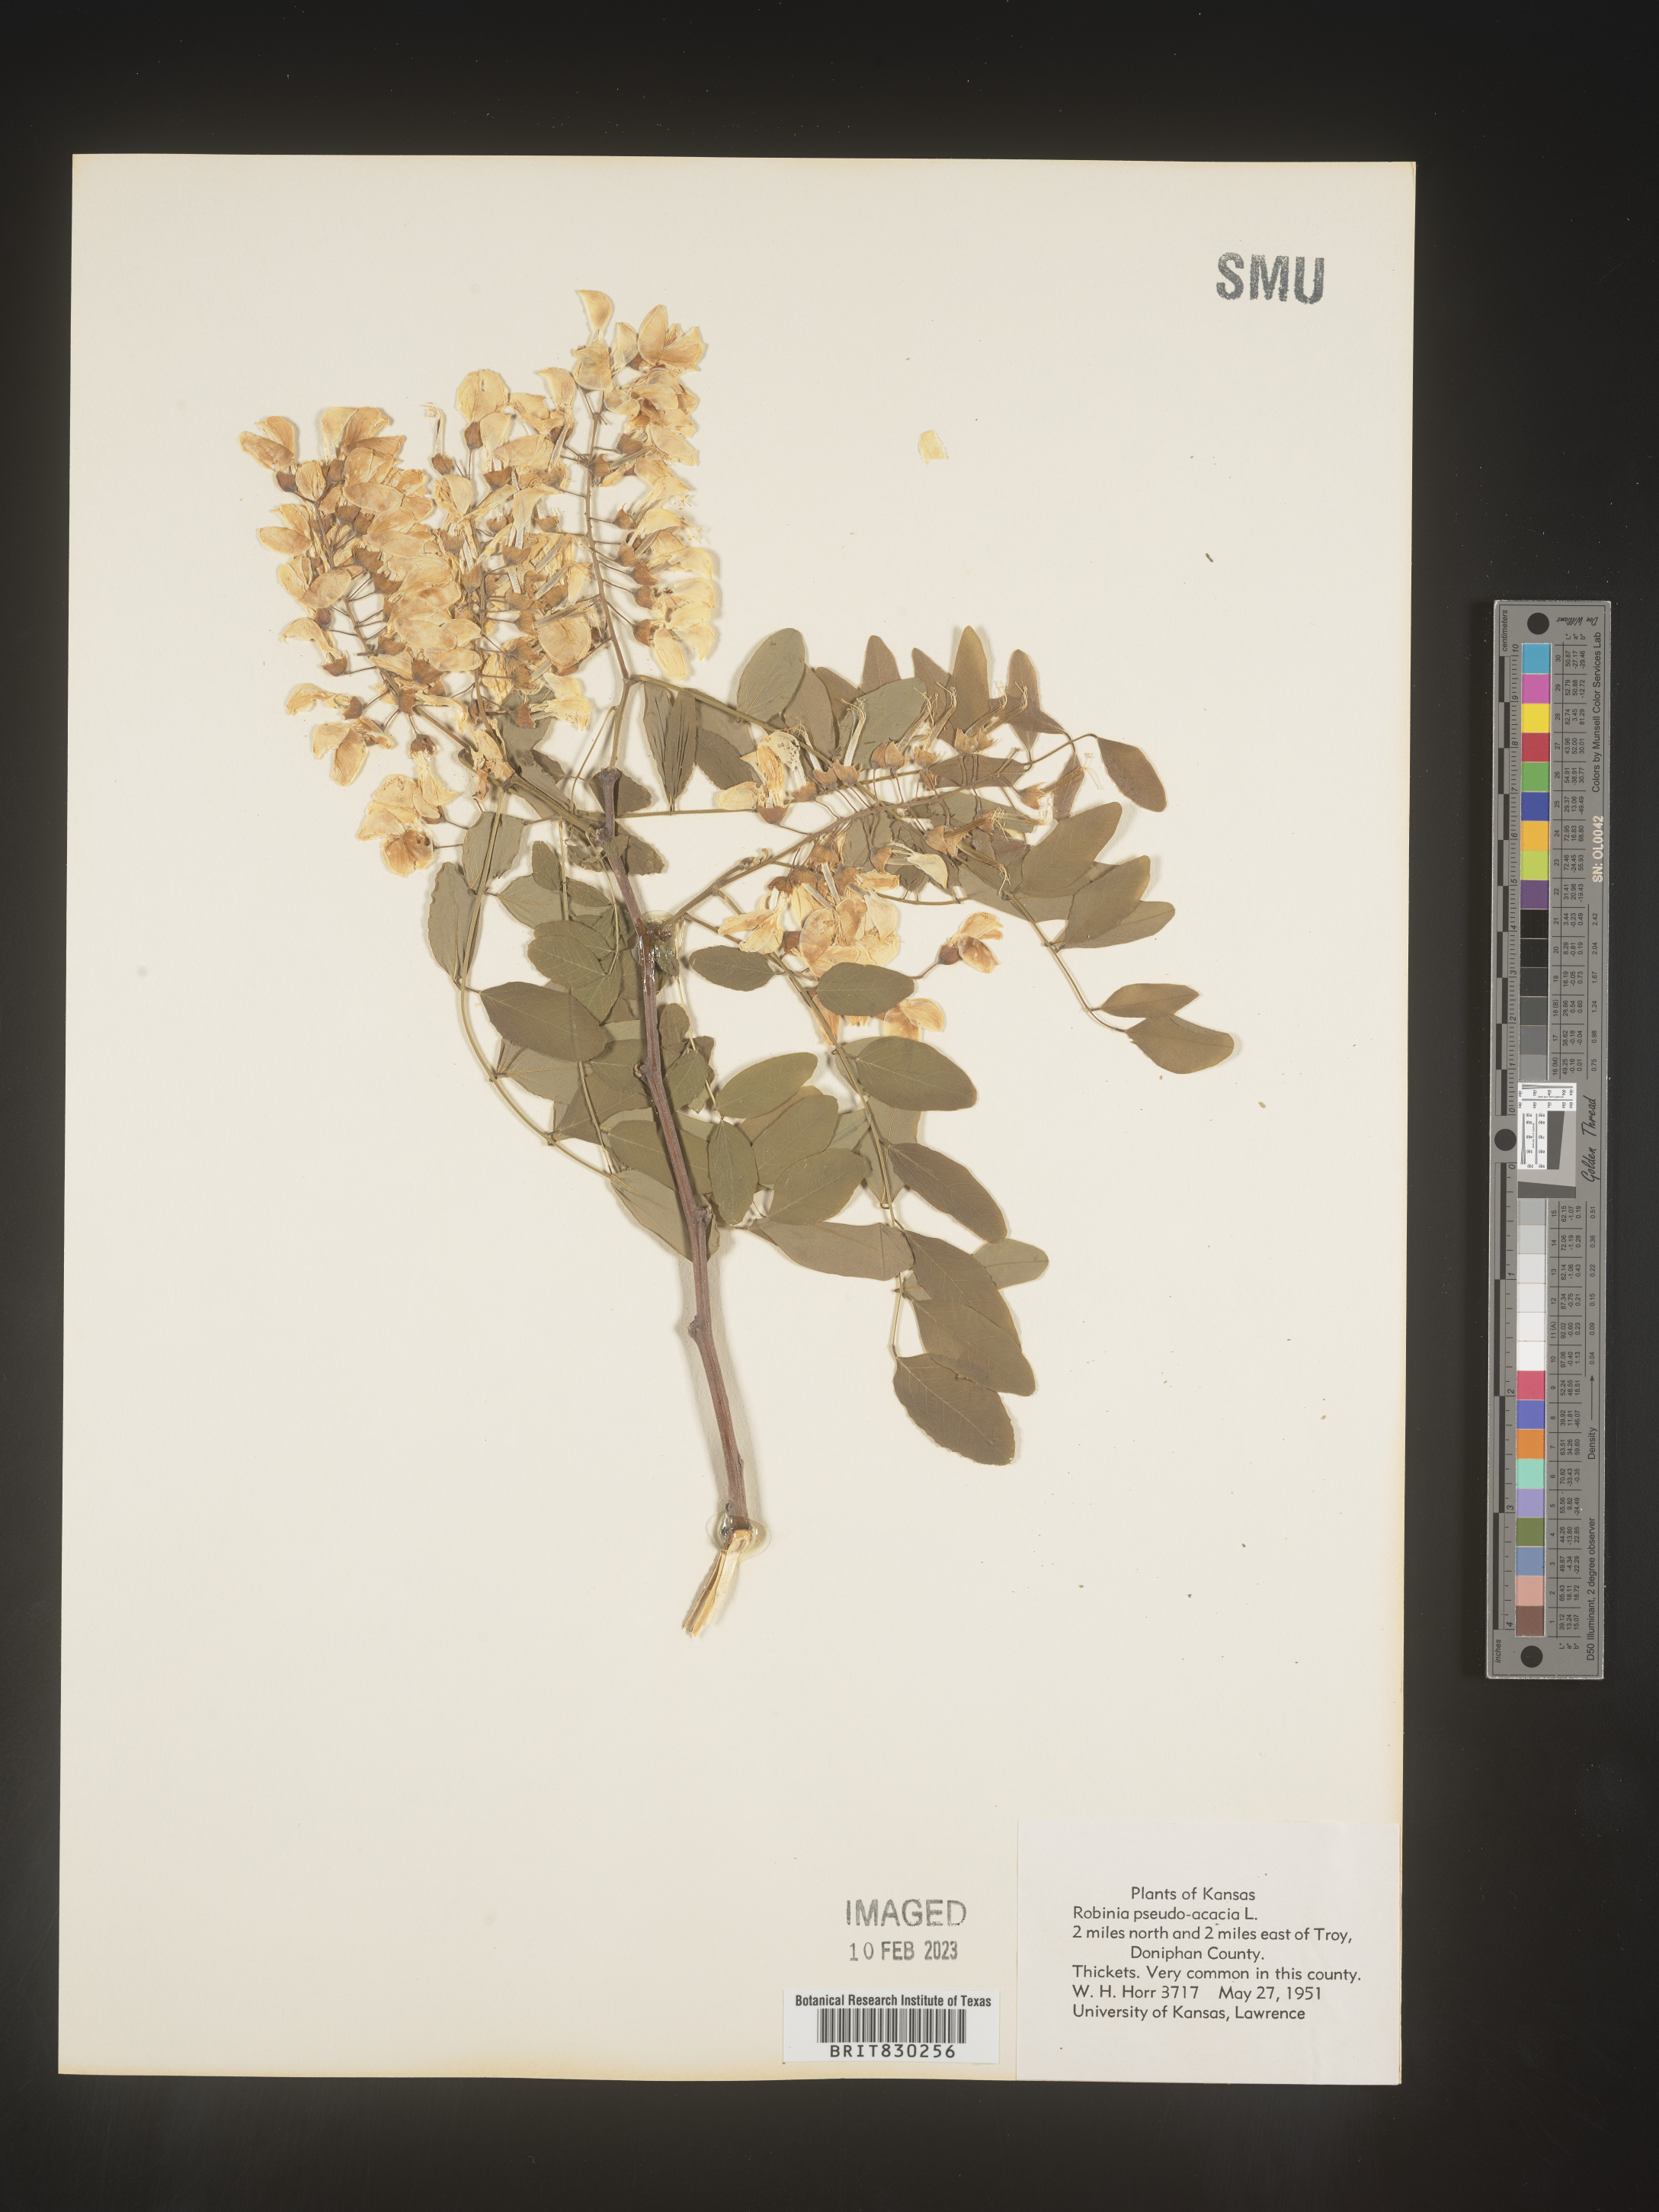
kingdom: Plantae
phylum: Tracheophyta
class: Magnoliopsida
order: Fabales
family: Fabaceae
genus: Robinia
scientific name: Robinia pseudoacacia
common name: Black locust
